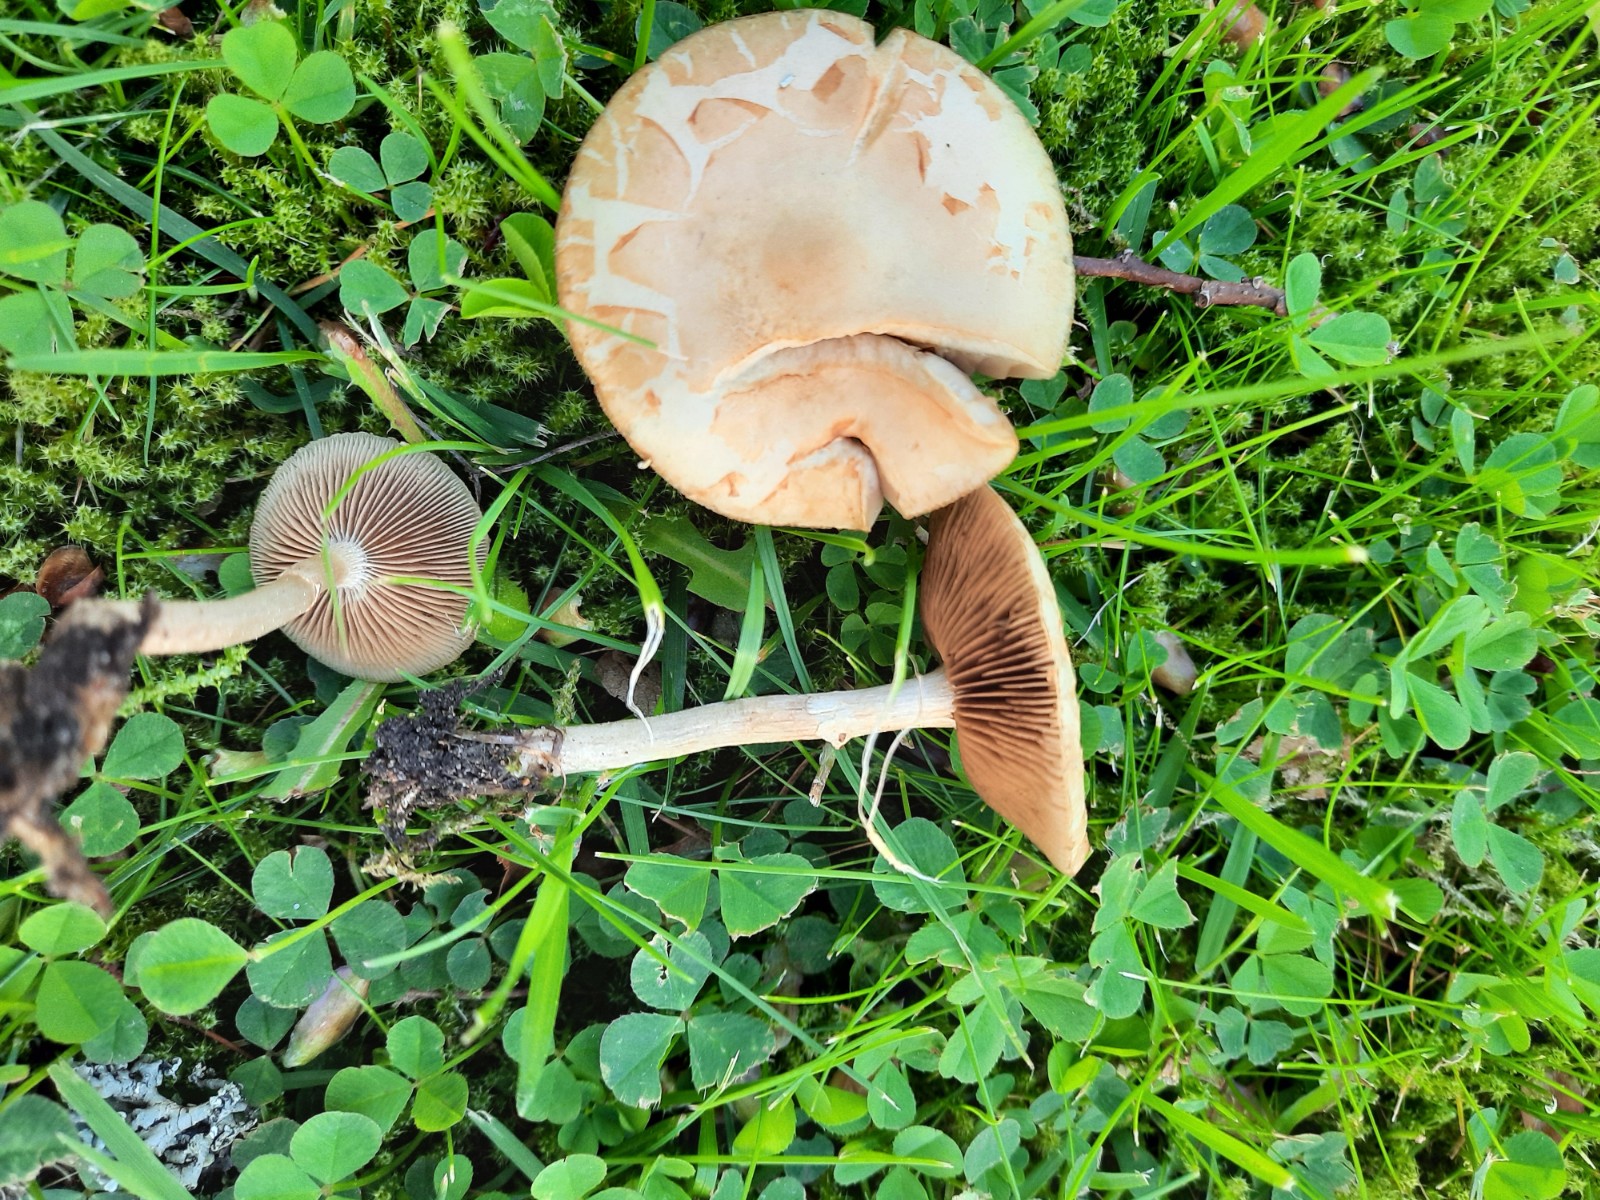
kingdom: Fungi
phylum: Basidiomycota
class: Agaricomycetes
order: Agaricales
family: Strophariaceae
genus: Agrocybe
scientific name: Agrocybe praecox
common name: tidlig agerhat
